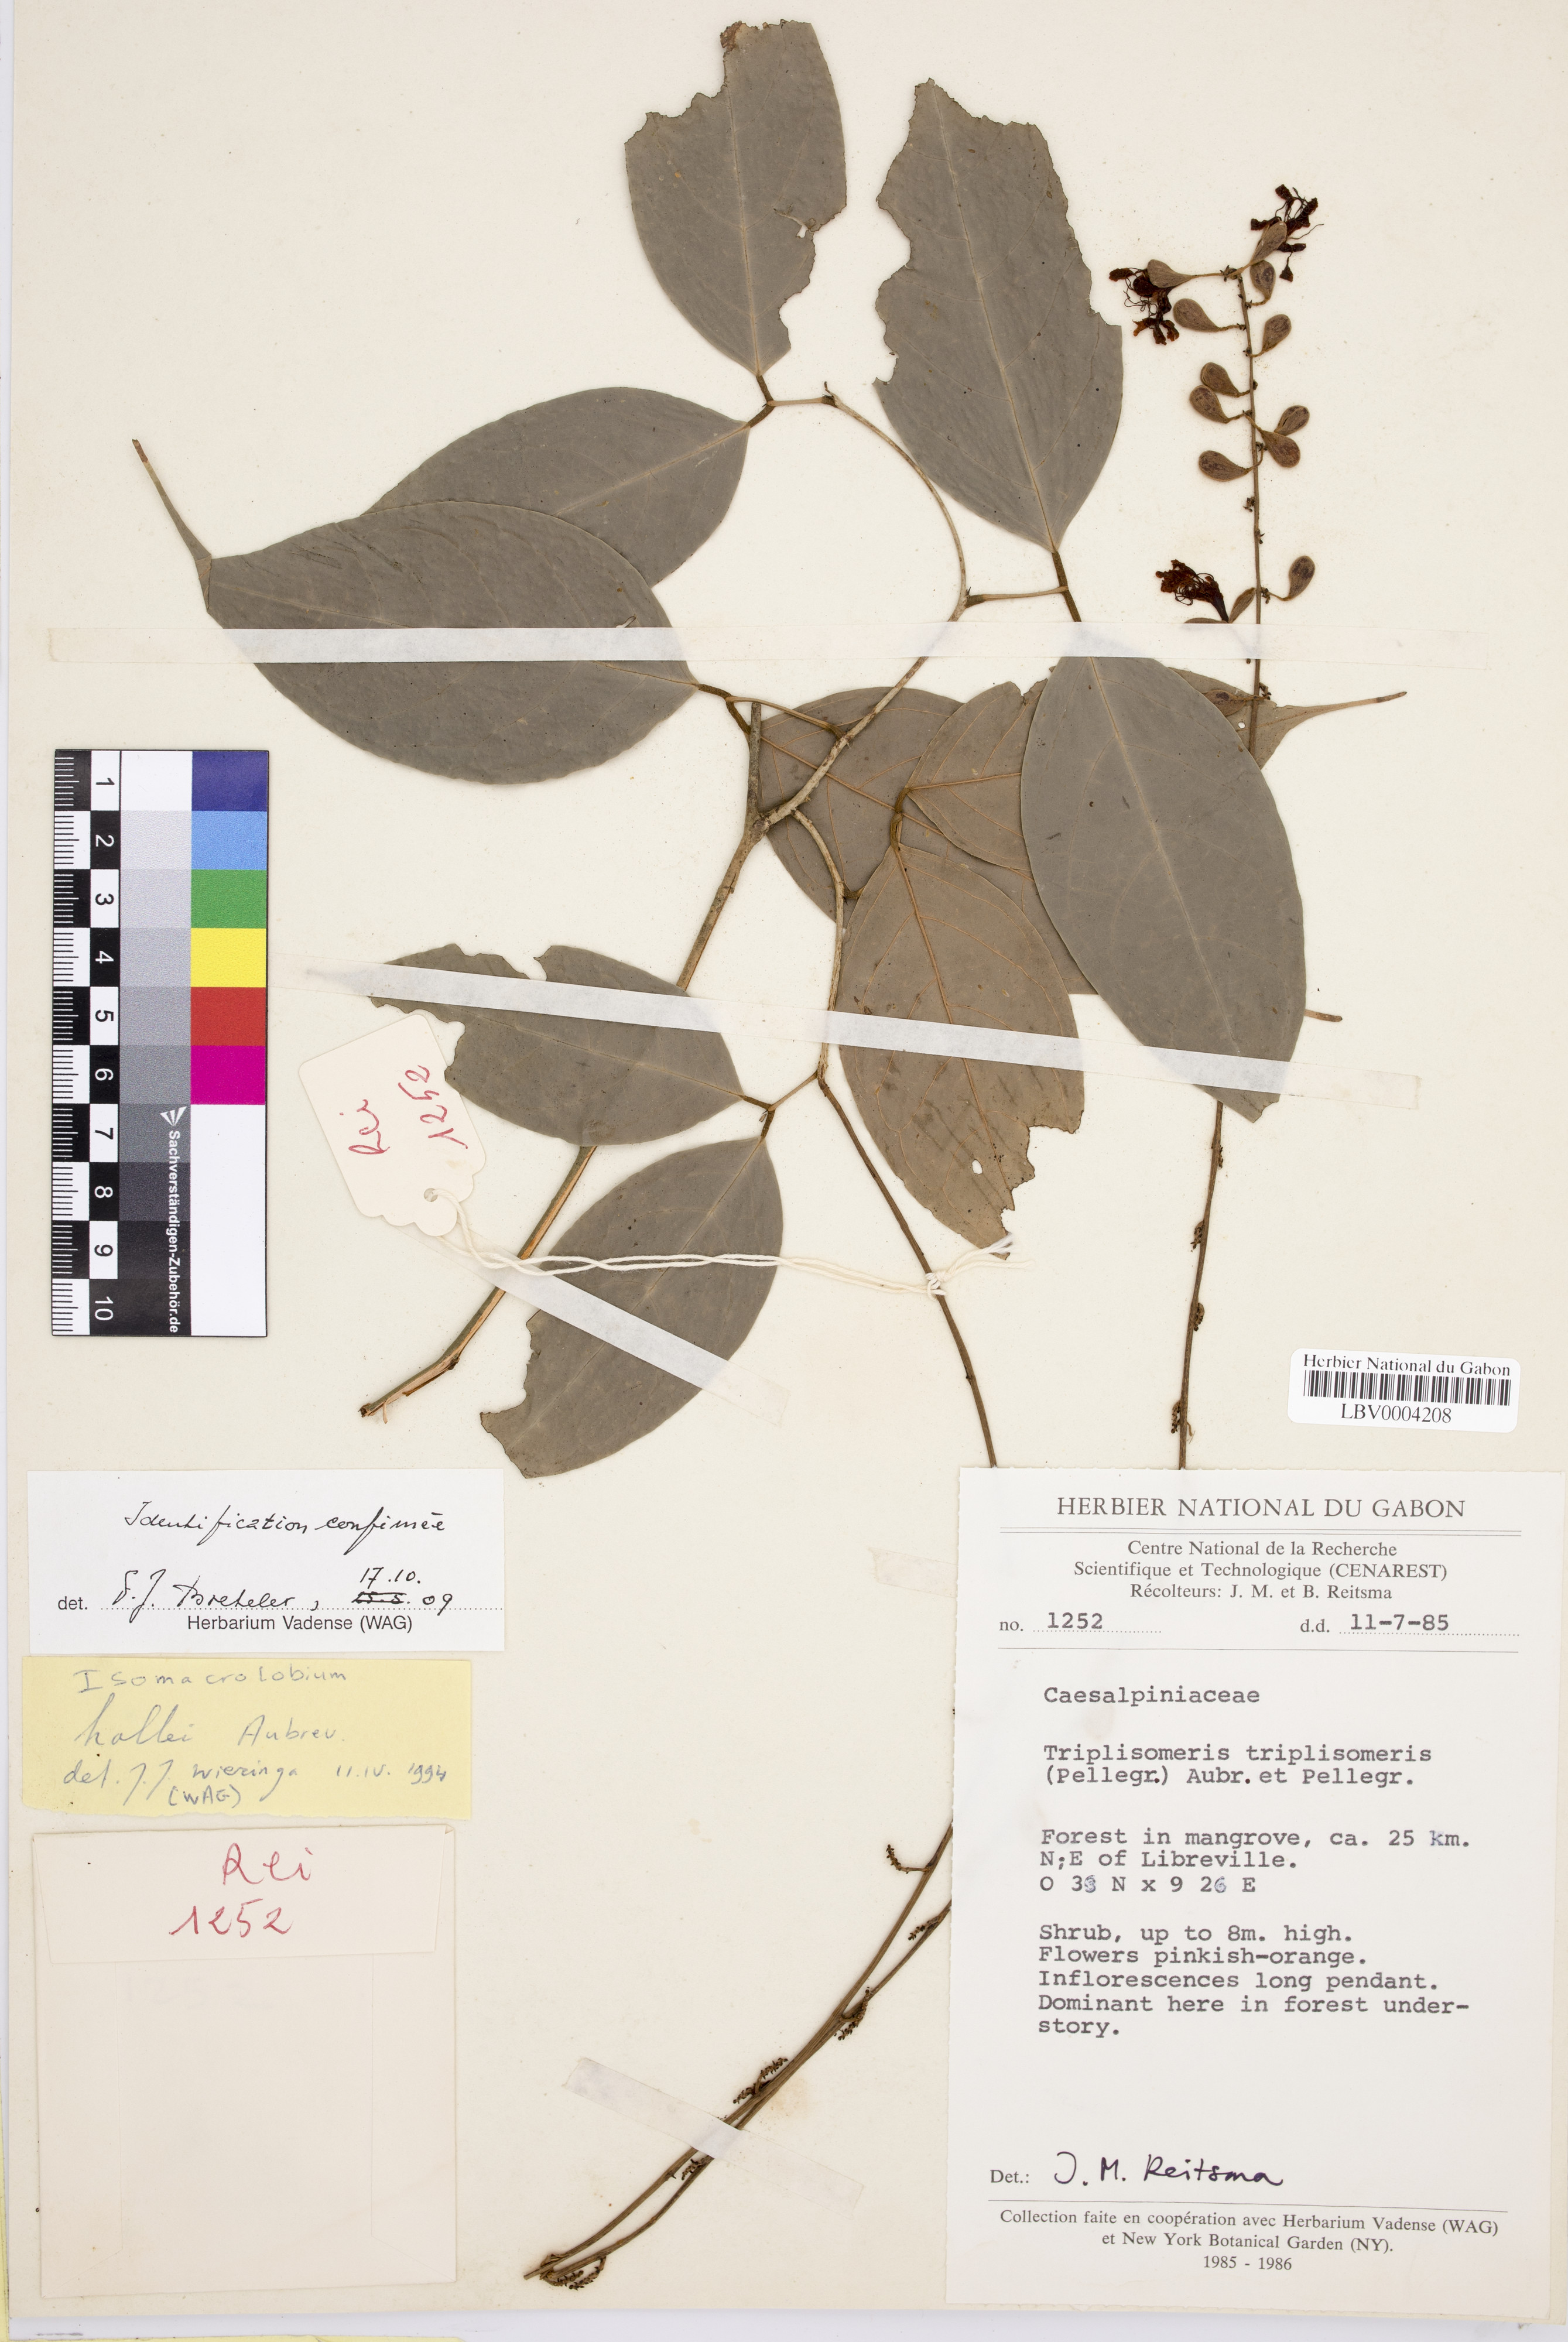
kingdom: Plantae
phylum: Tracheophyta
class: Magnoliopsida
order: Fabales
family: Fabaceae
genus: Englerodendron
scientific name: Englerodendron hallei
